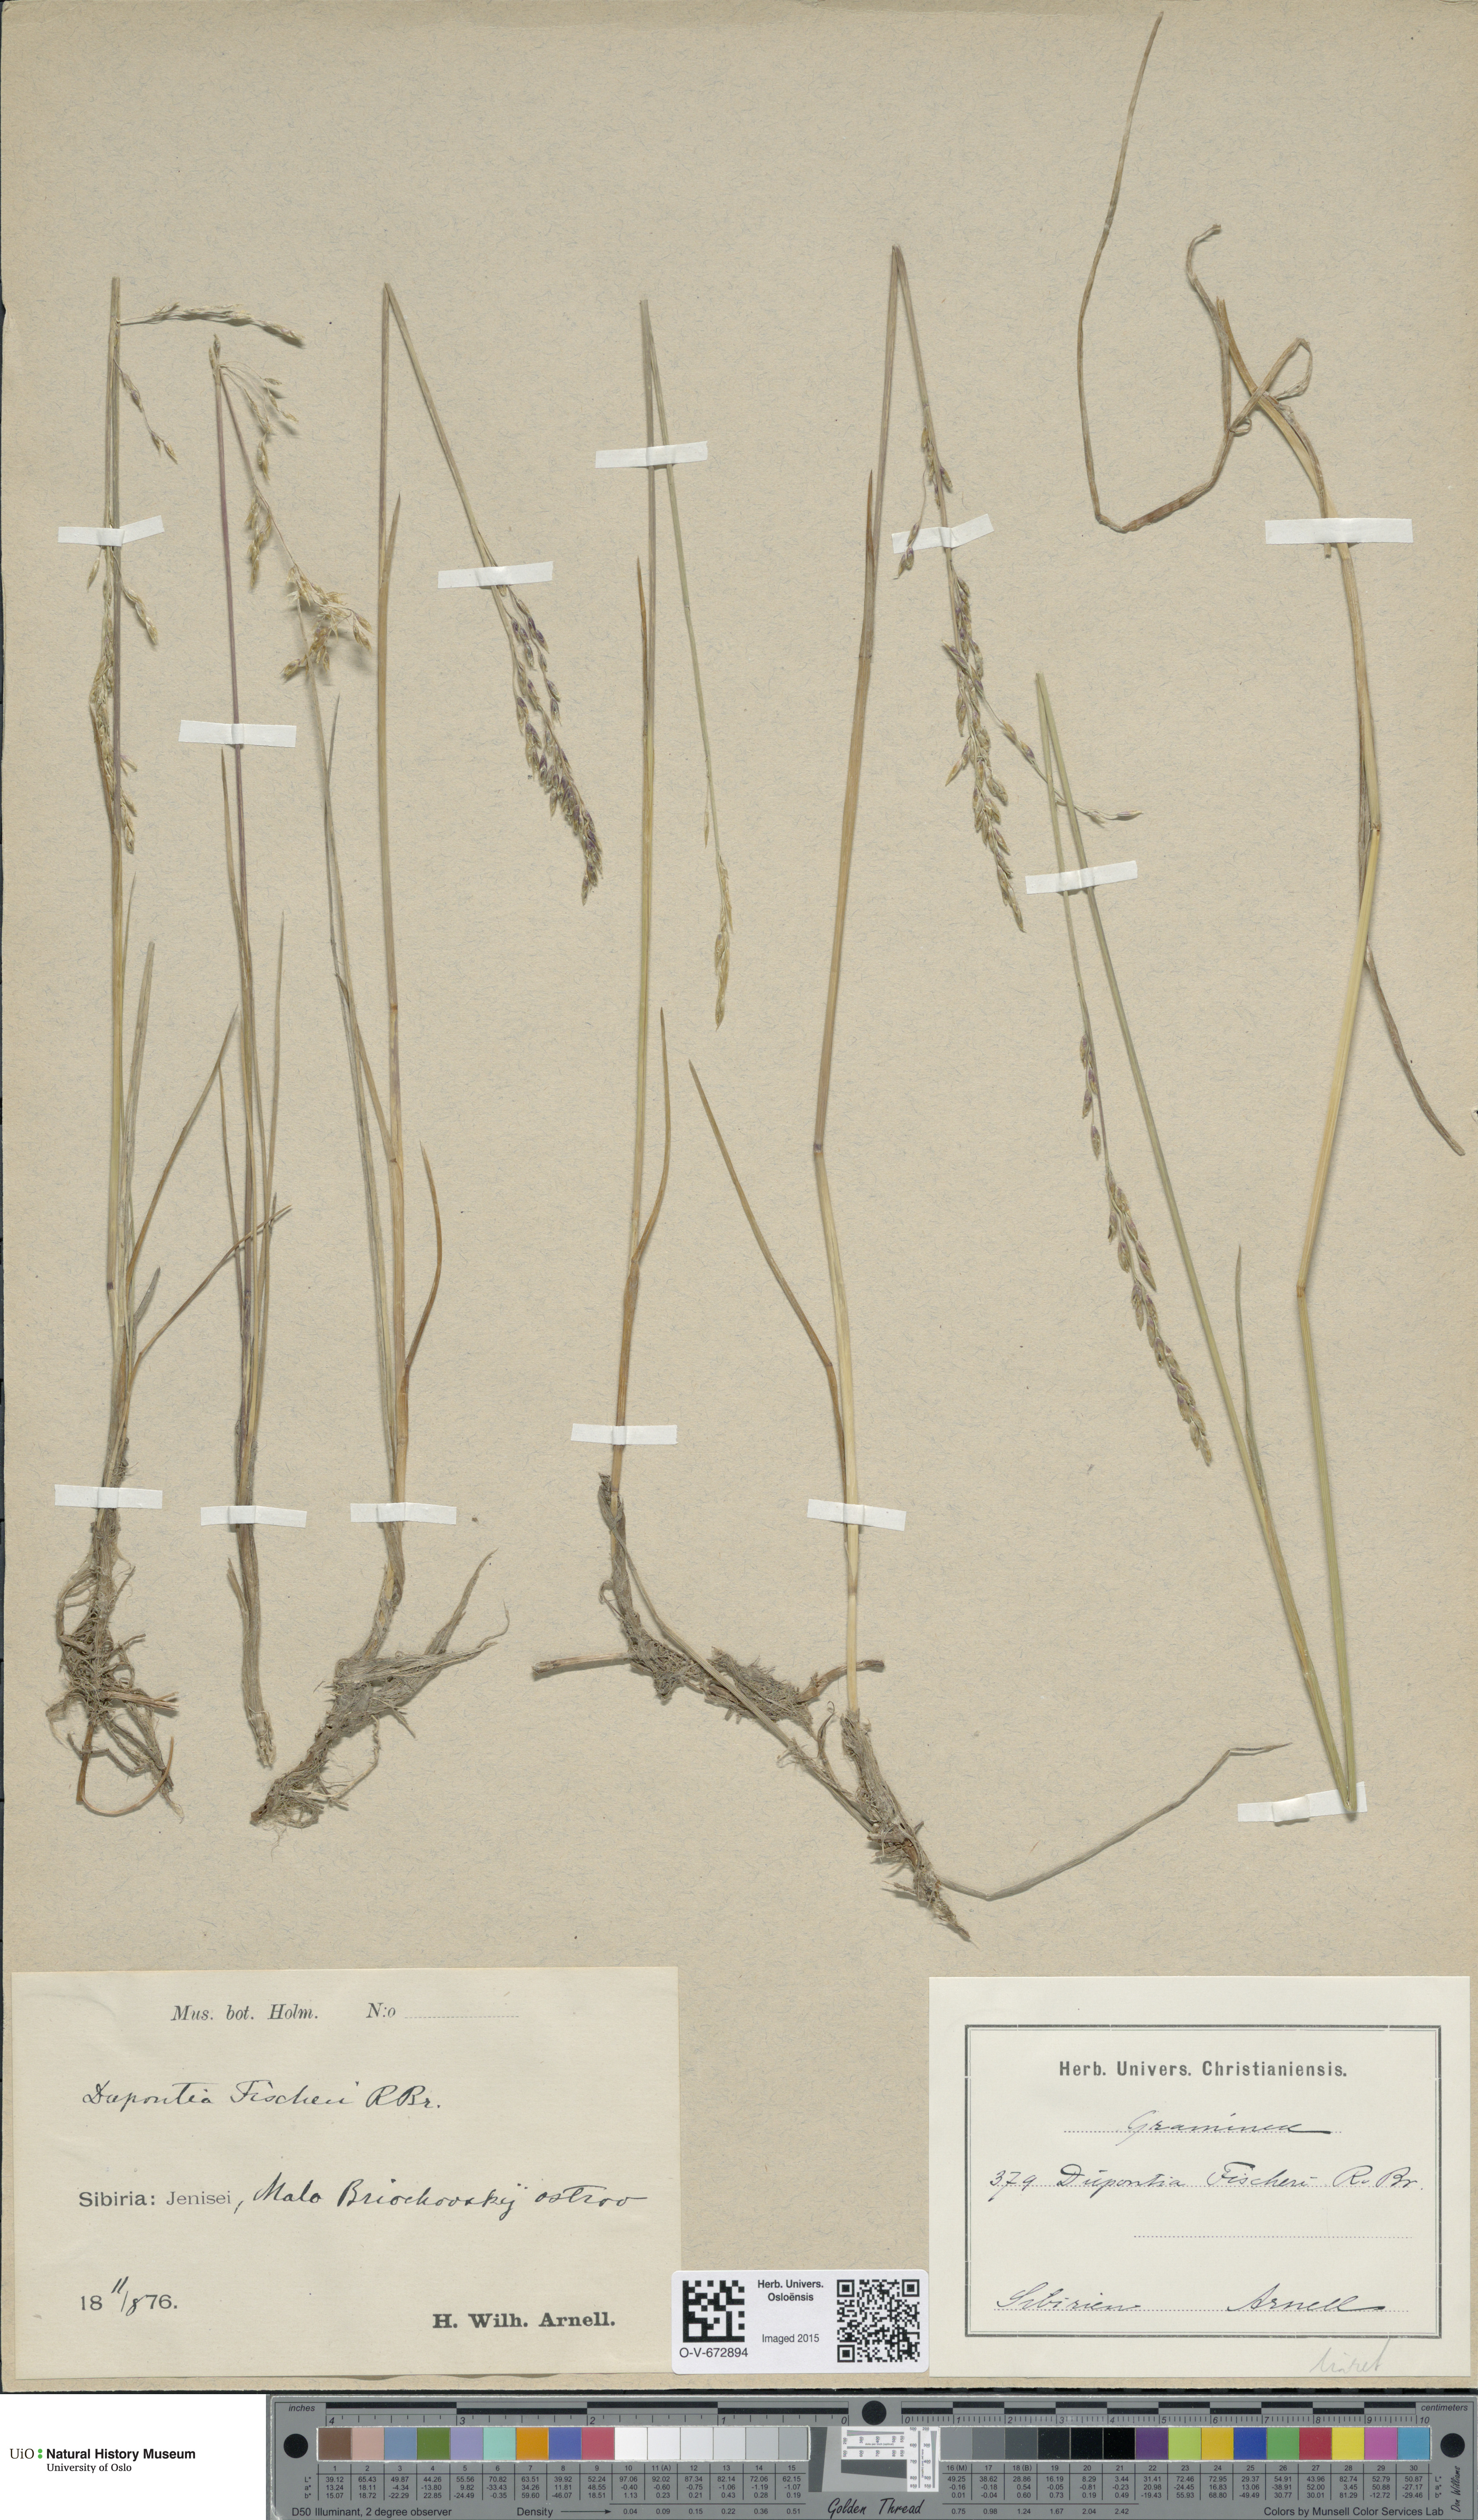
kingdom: Plantae
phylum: Tracheophyta
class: Liliopsida
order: Poales
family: Poaceae
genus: Dupontia
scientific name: Dupontia fisheri
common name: Tundra grass
